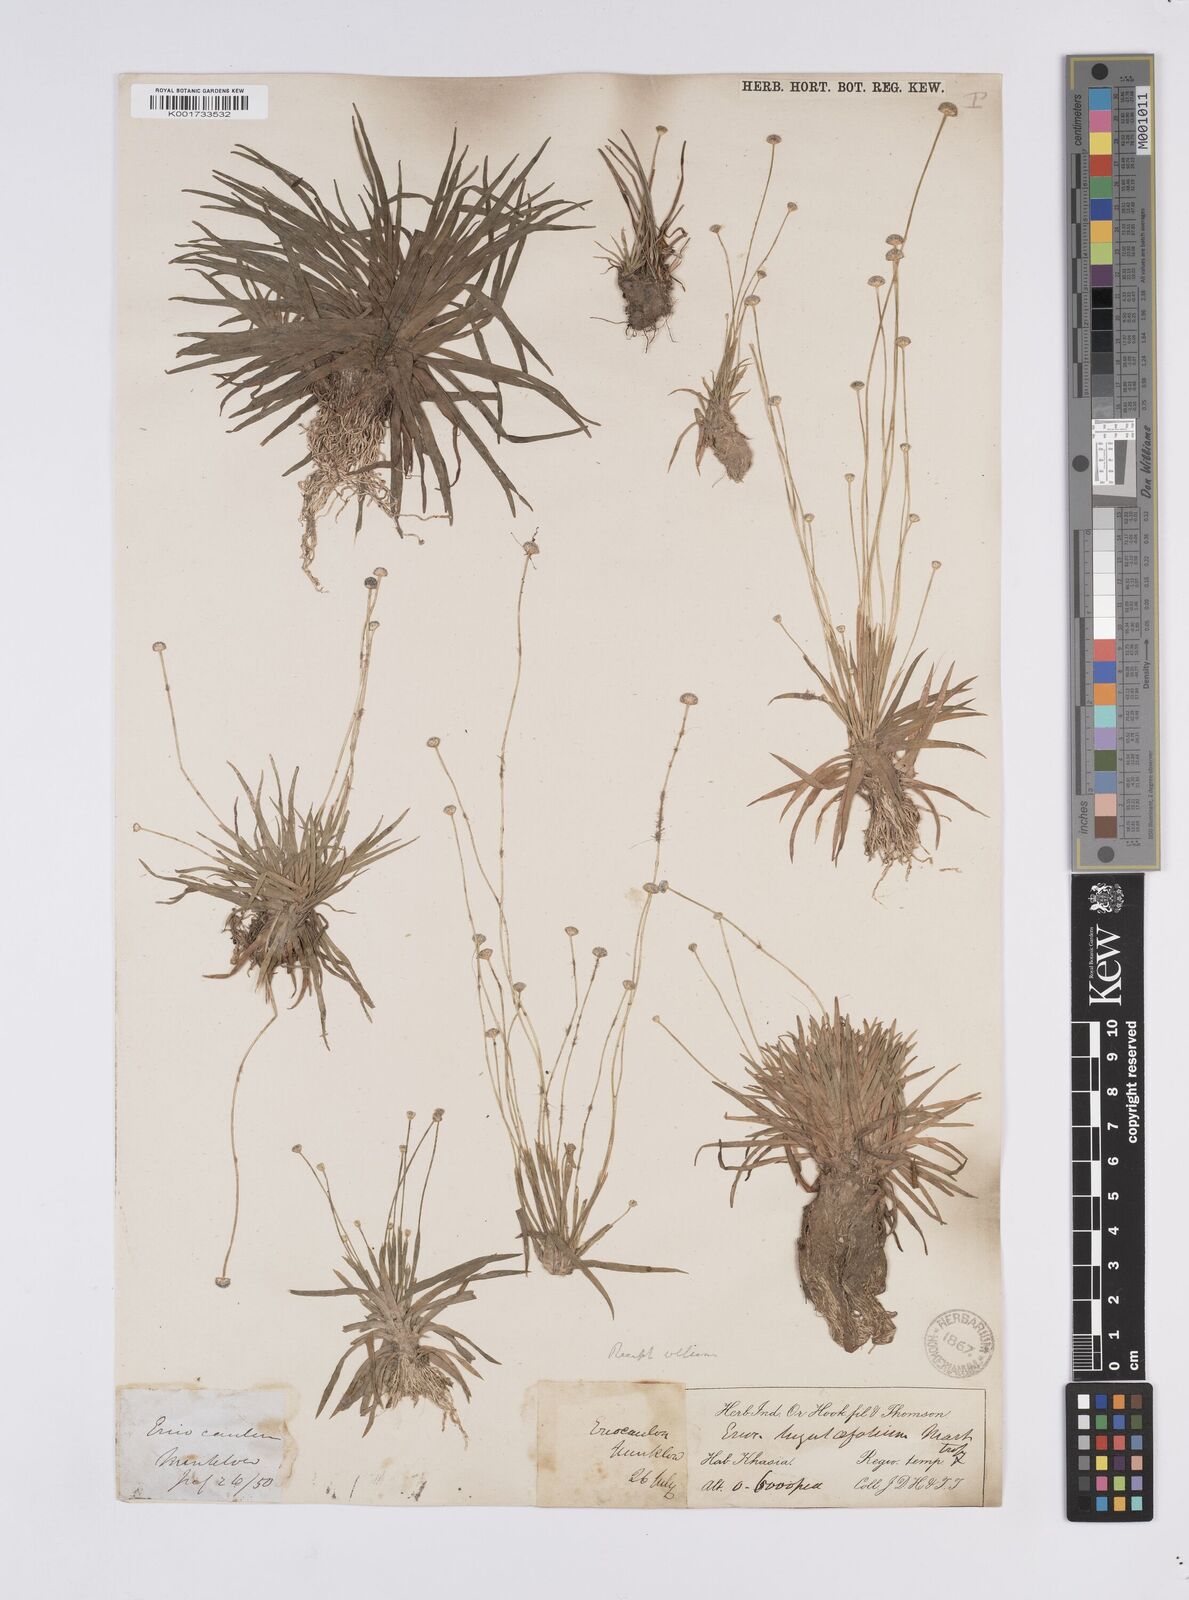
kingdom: Plantae
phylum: Tracheophyta
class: Liliopsida
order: Poales
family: Eriocaulaceae
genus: Eriocaulon
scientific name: Eriocaulon nepalense
